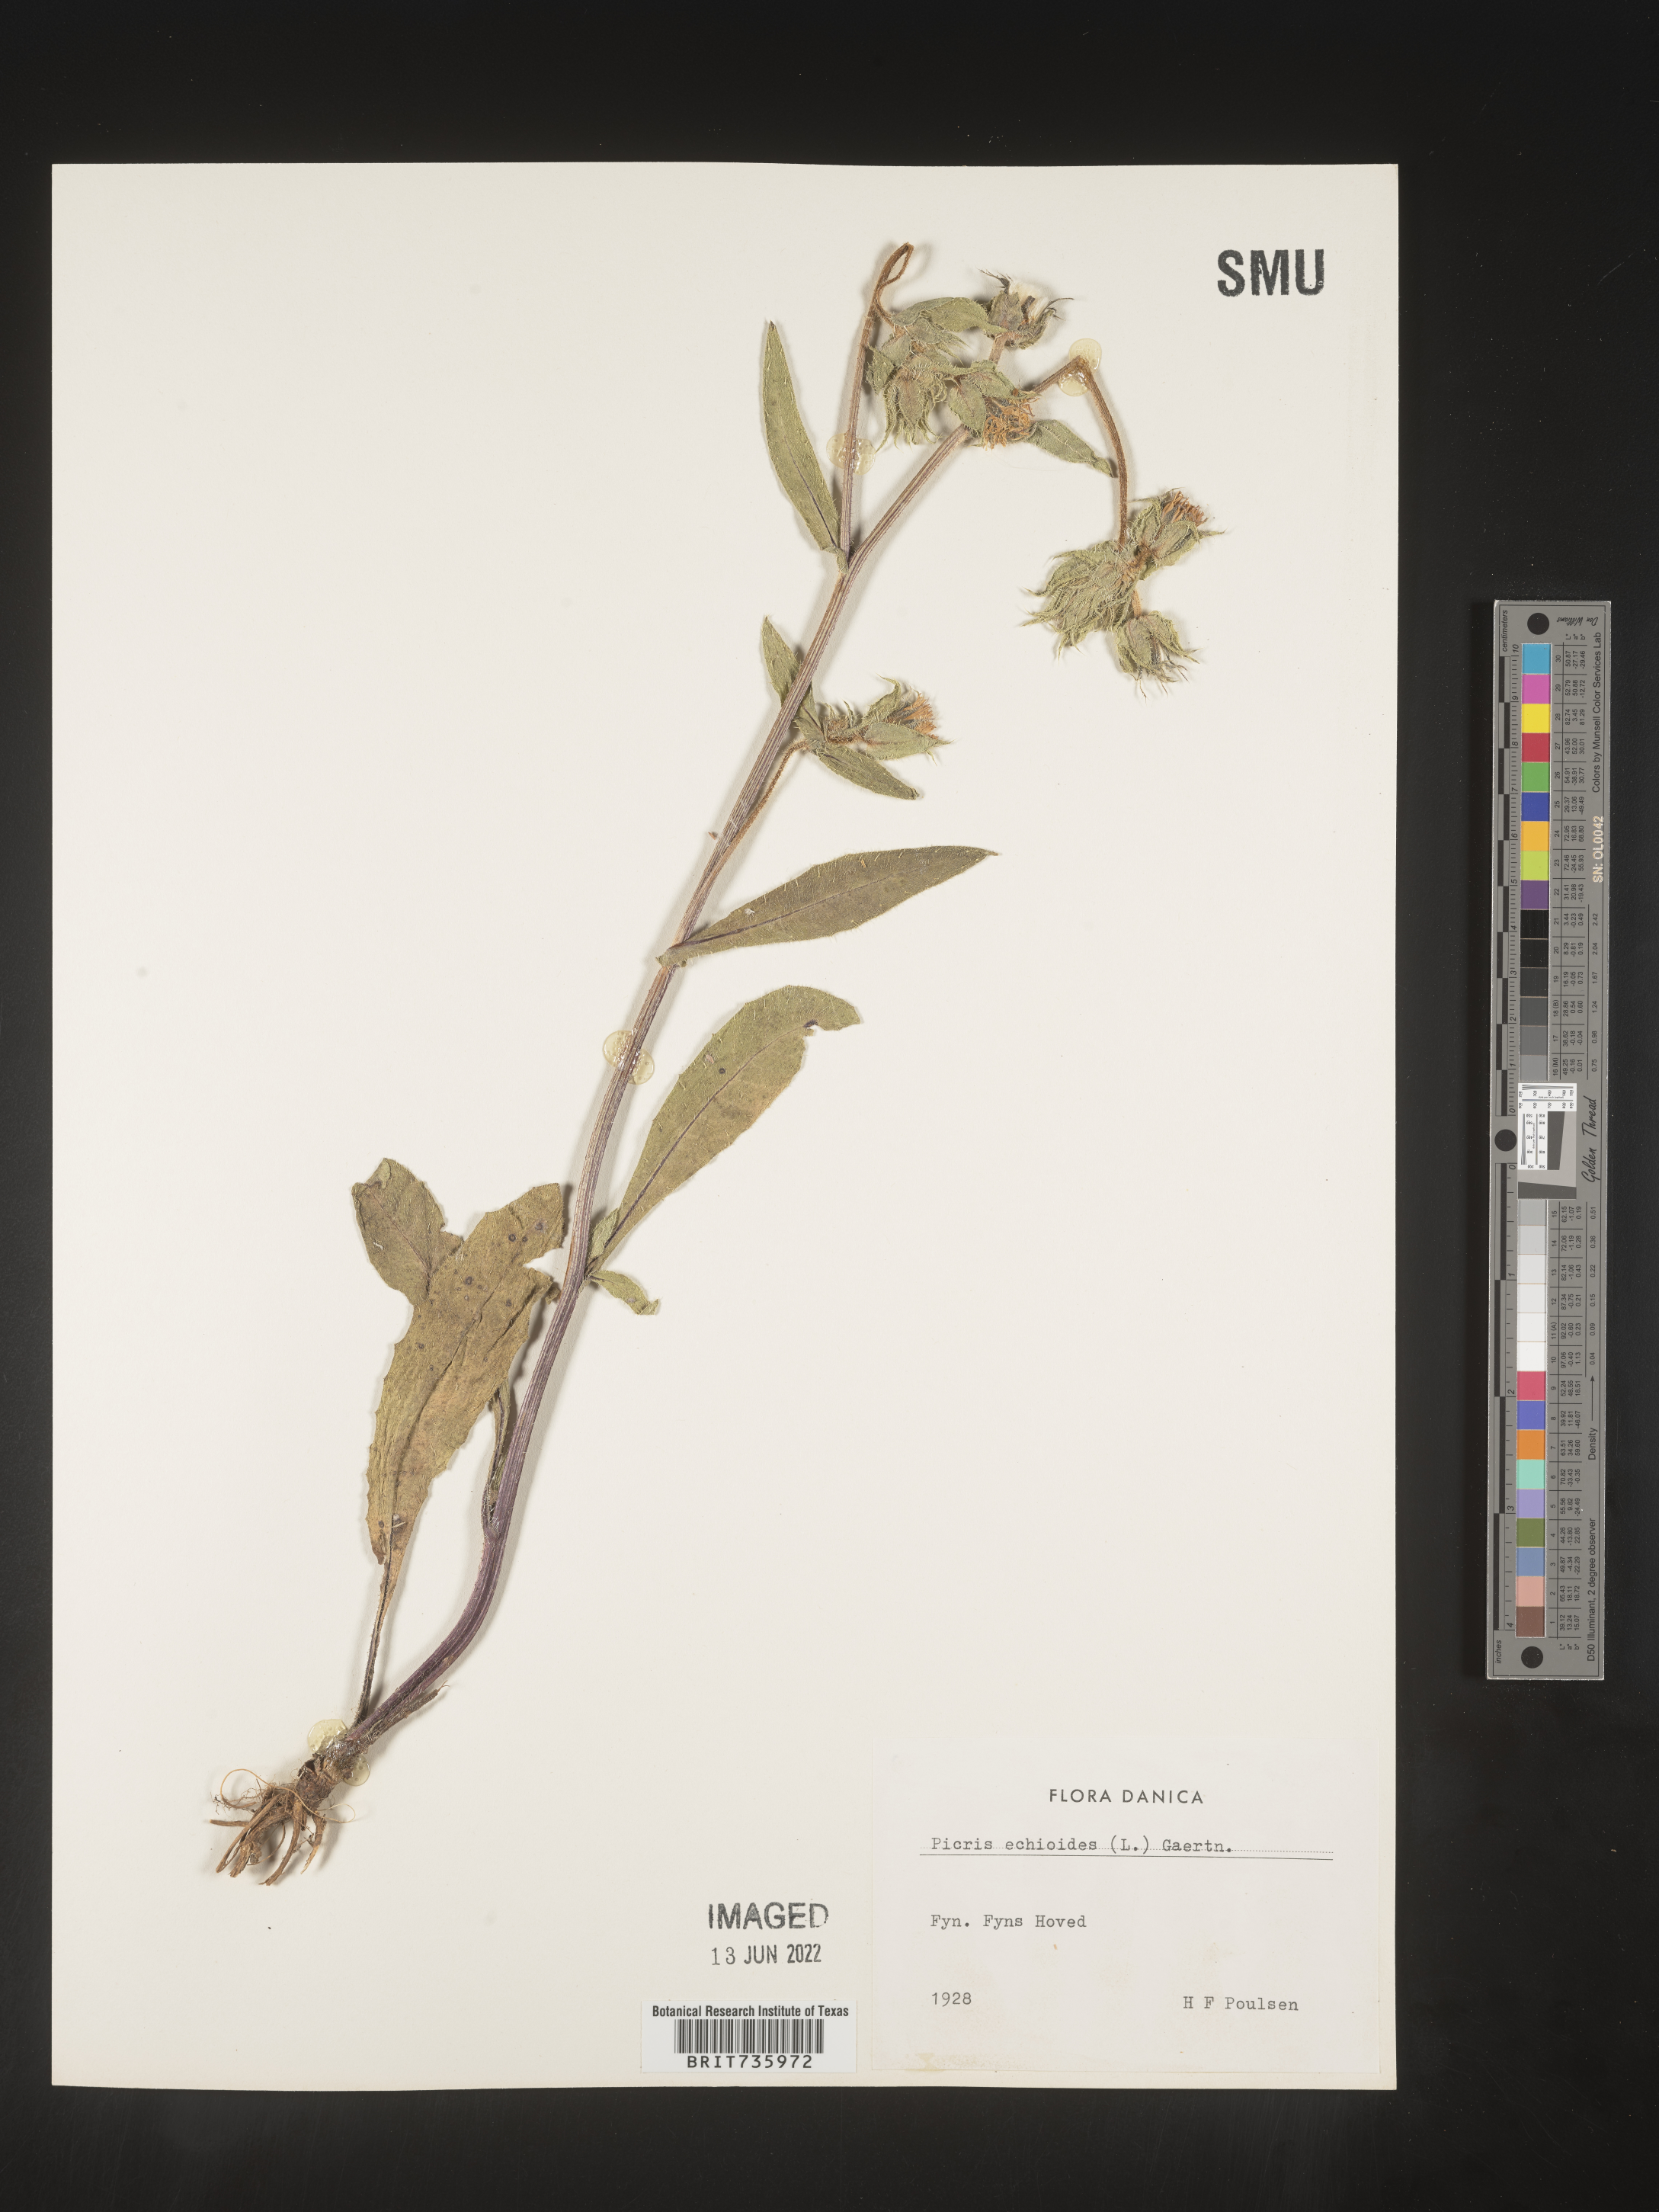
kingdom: Plantae
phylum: Tracheophyta
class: Magnoliopsida
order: Asterales
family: Asteraceae
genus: Picris
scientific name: Picris
